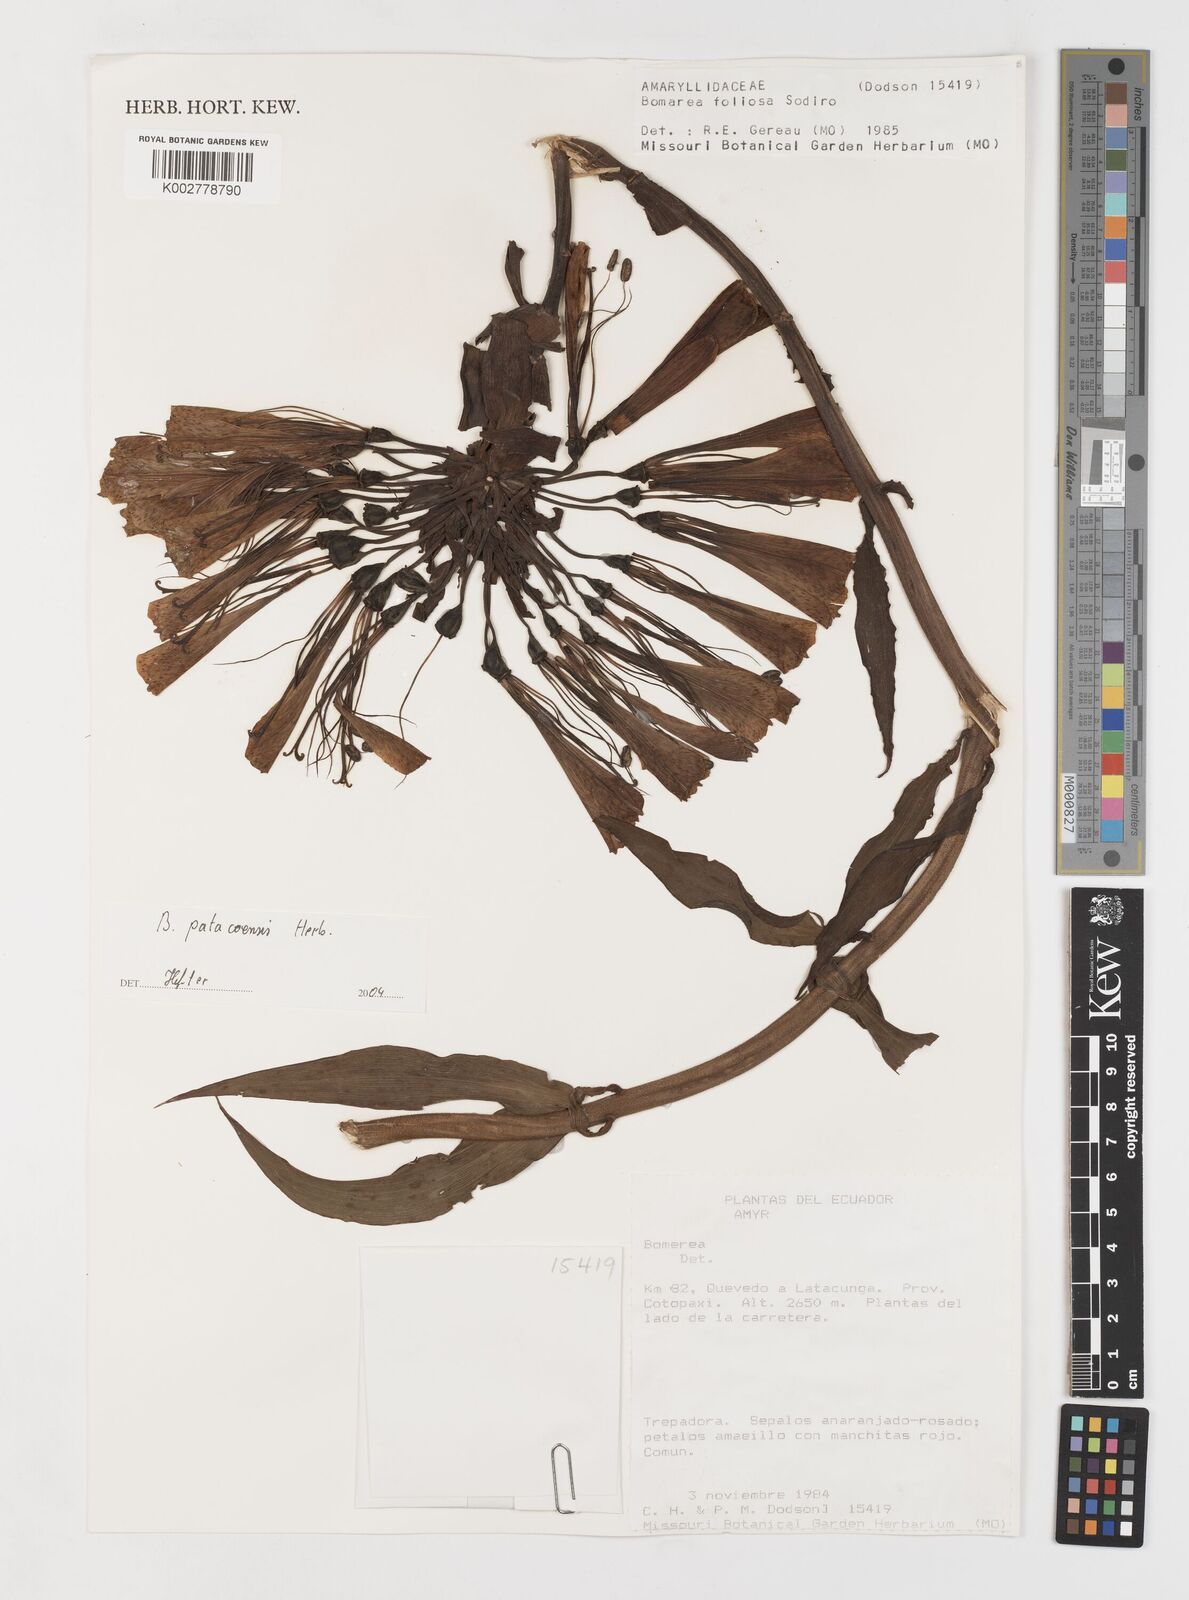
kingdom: Plantae
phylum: Tracheophyta
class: Liliopsida
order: Liliales
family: Alstroemeriaceae
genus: Bomarea
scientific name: Bomarea patacocensis
